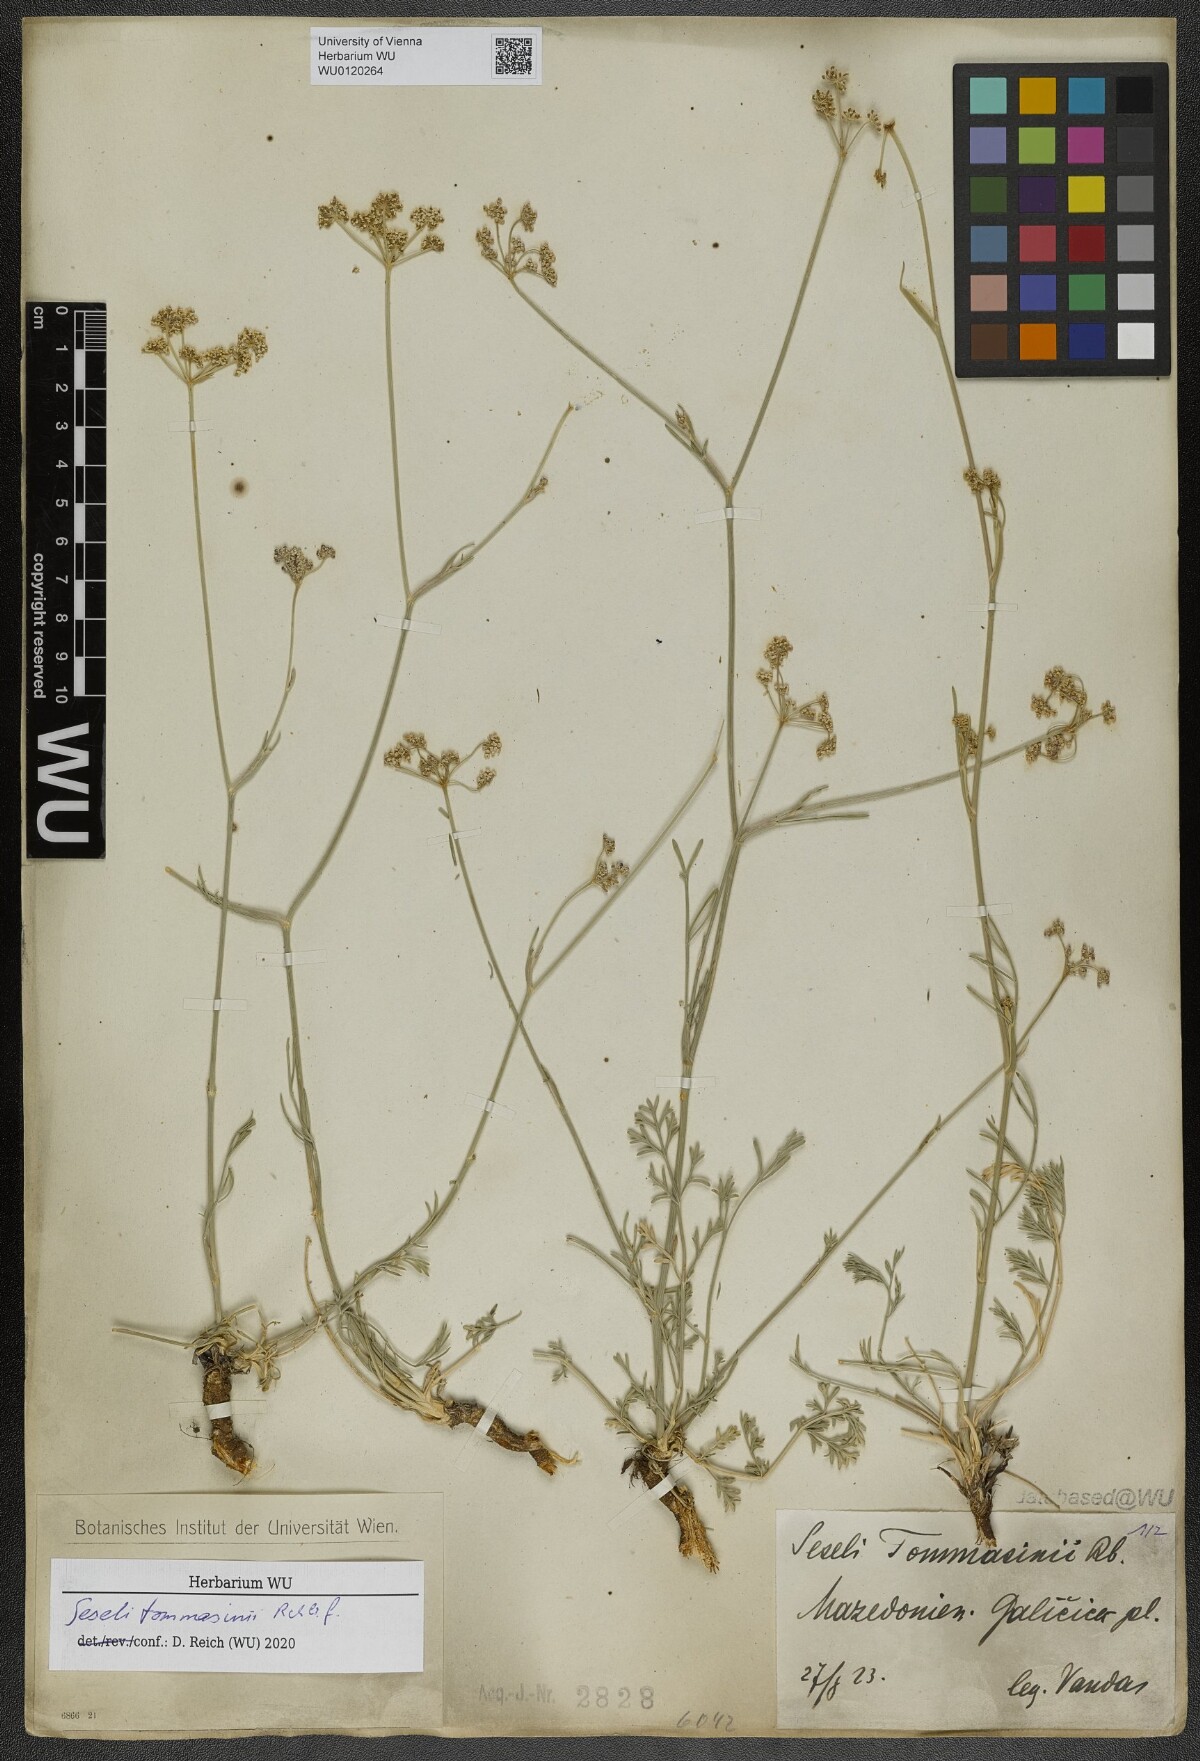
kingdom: Plantae
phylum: Tracheophyta
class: Magnoliopsida
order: Apiales
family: Apiaceae
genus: Seseli
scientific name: Seseli montanum
